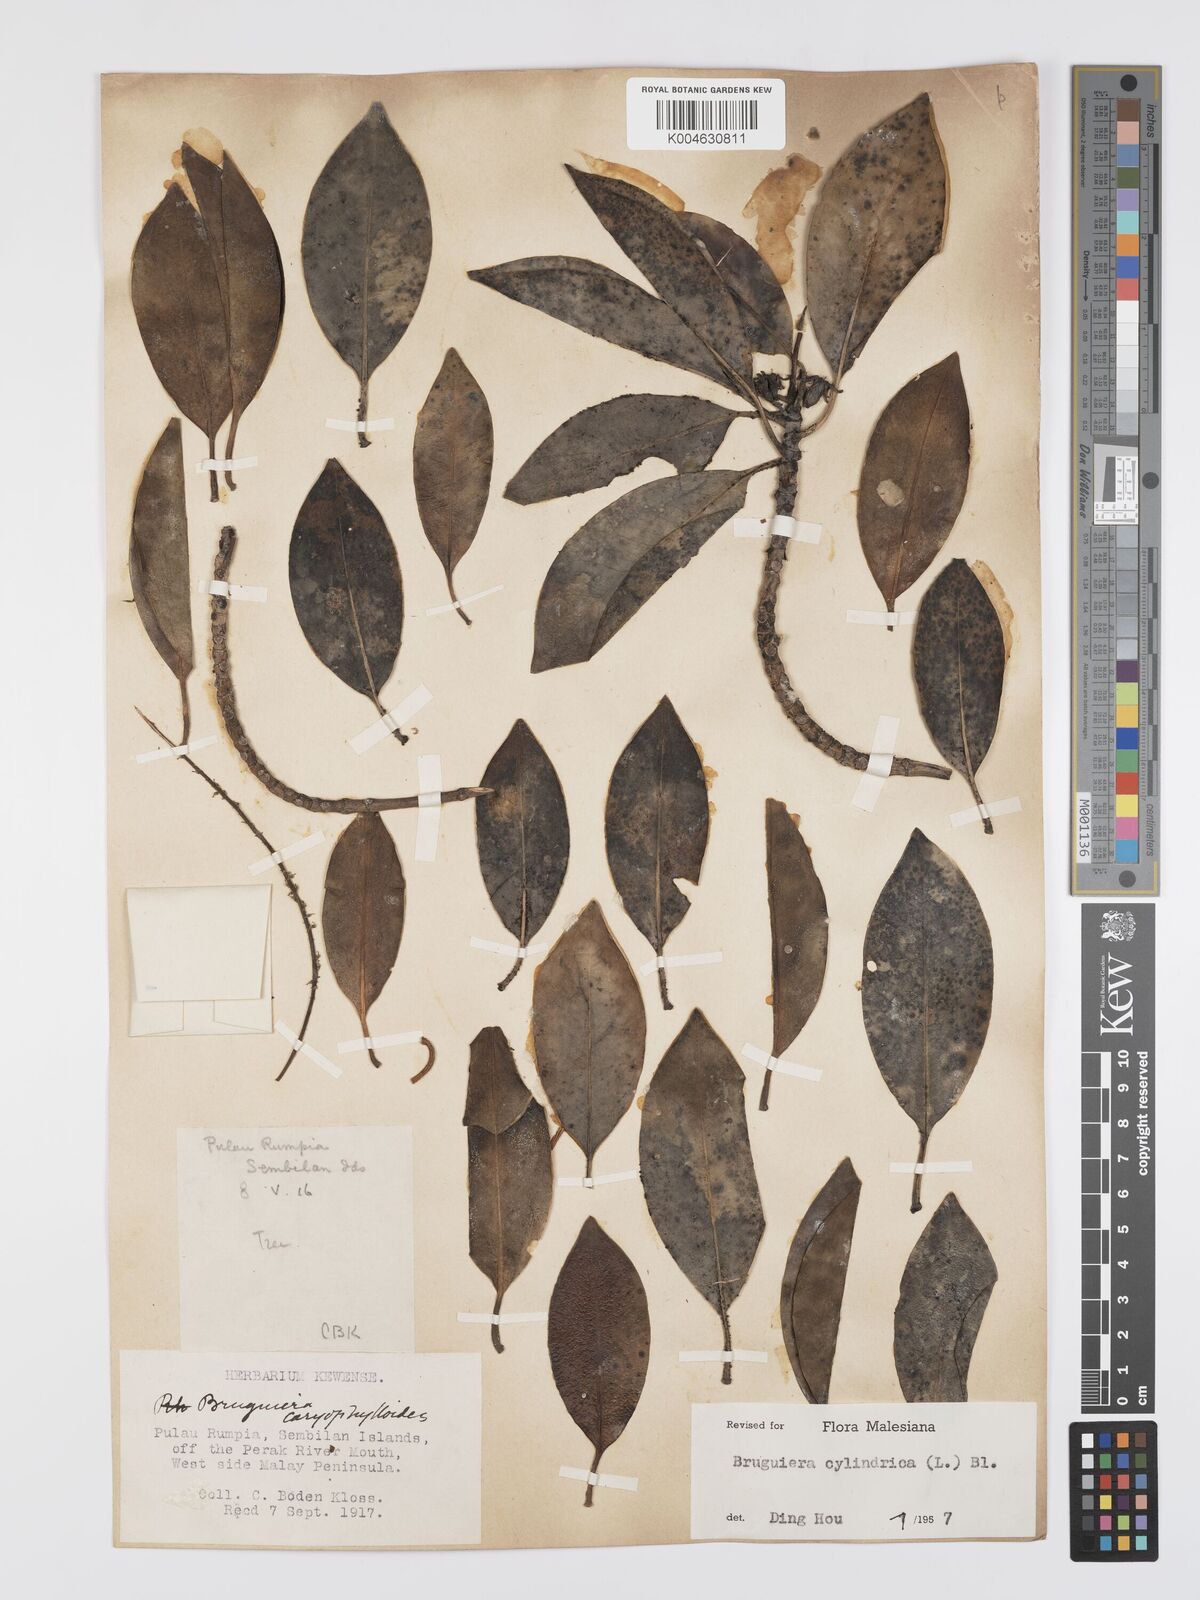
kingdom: Plantae
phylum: Tracheophyta
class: Magnoliopsida
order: Malpighiales
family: Rhizophoraceae
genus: Bruguiera
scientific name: Bruguiera cylindrica
